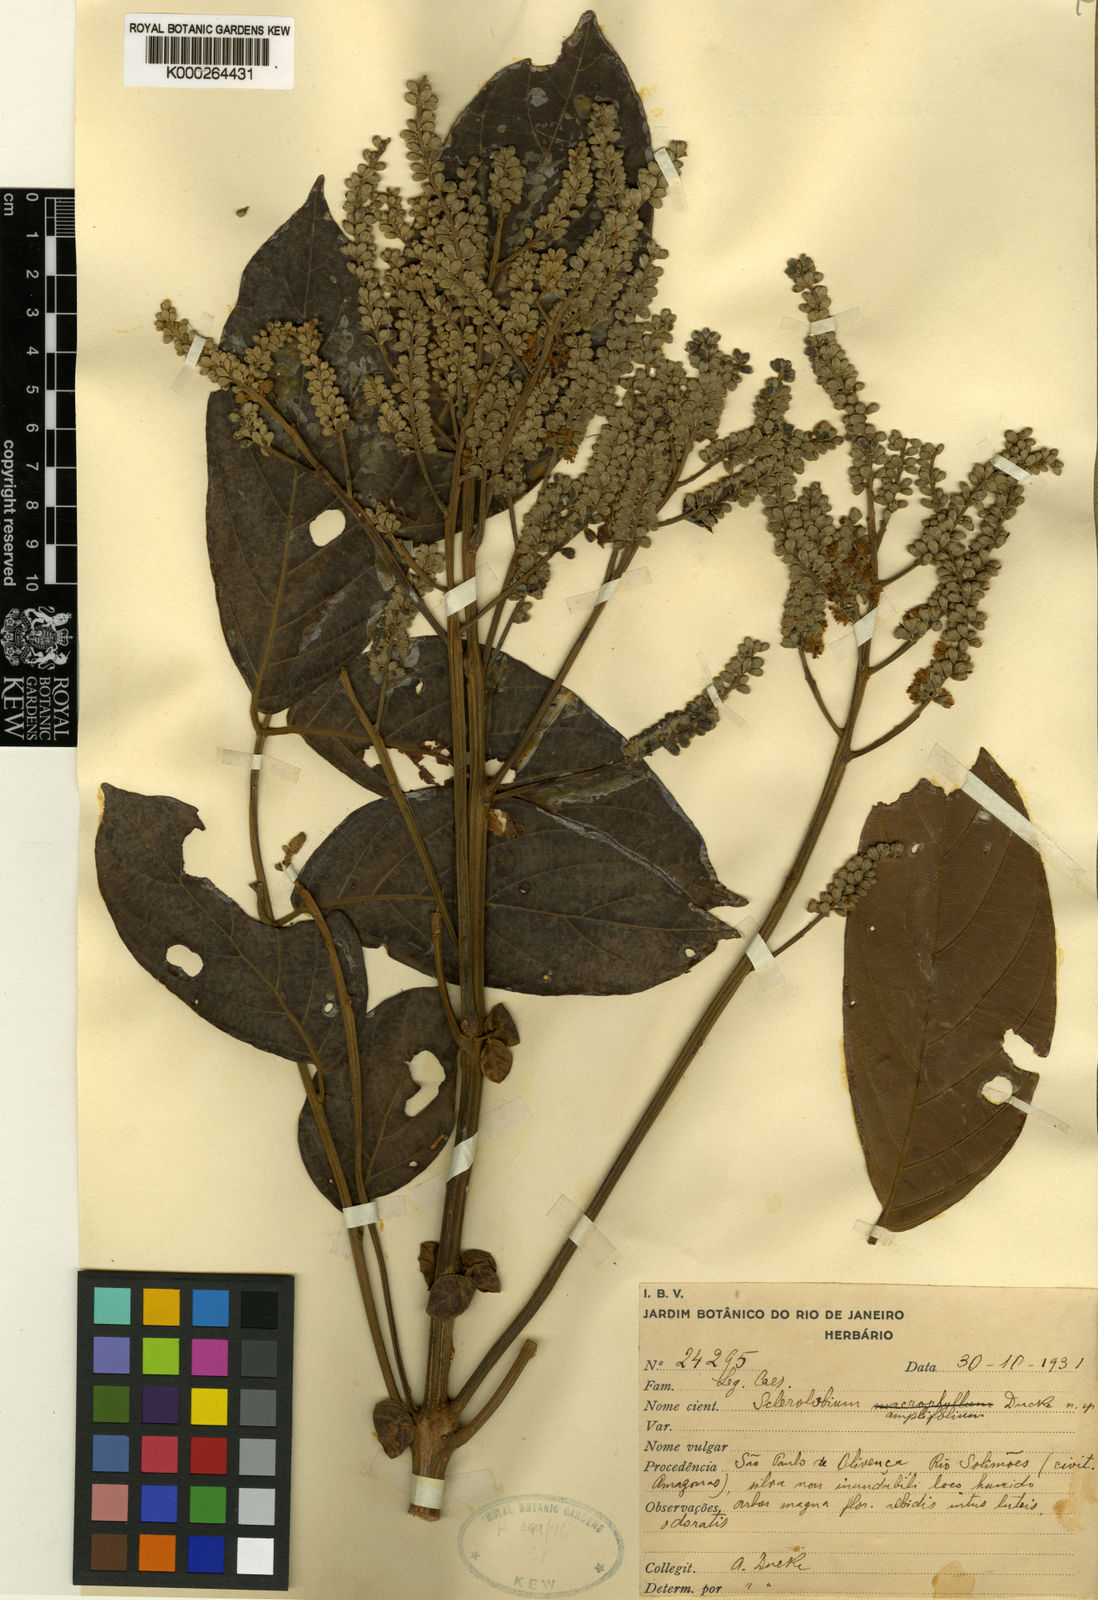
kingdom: Plantae
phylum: Tracheophyta
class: Magnoliopsida
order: Fabales
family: Fabaceae
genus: Tachigali
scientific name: Tachigali amplifolia
